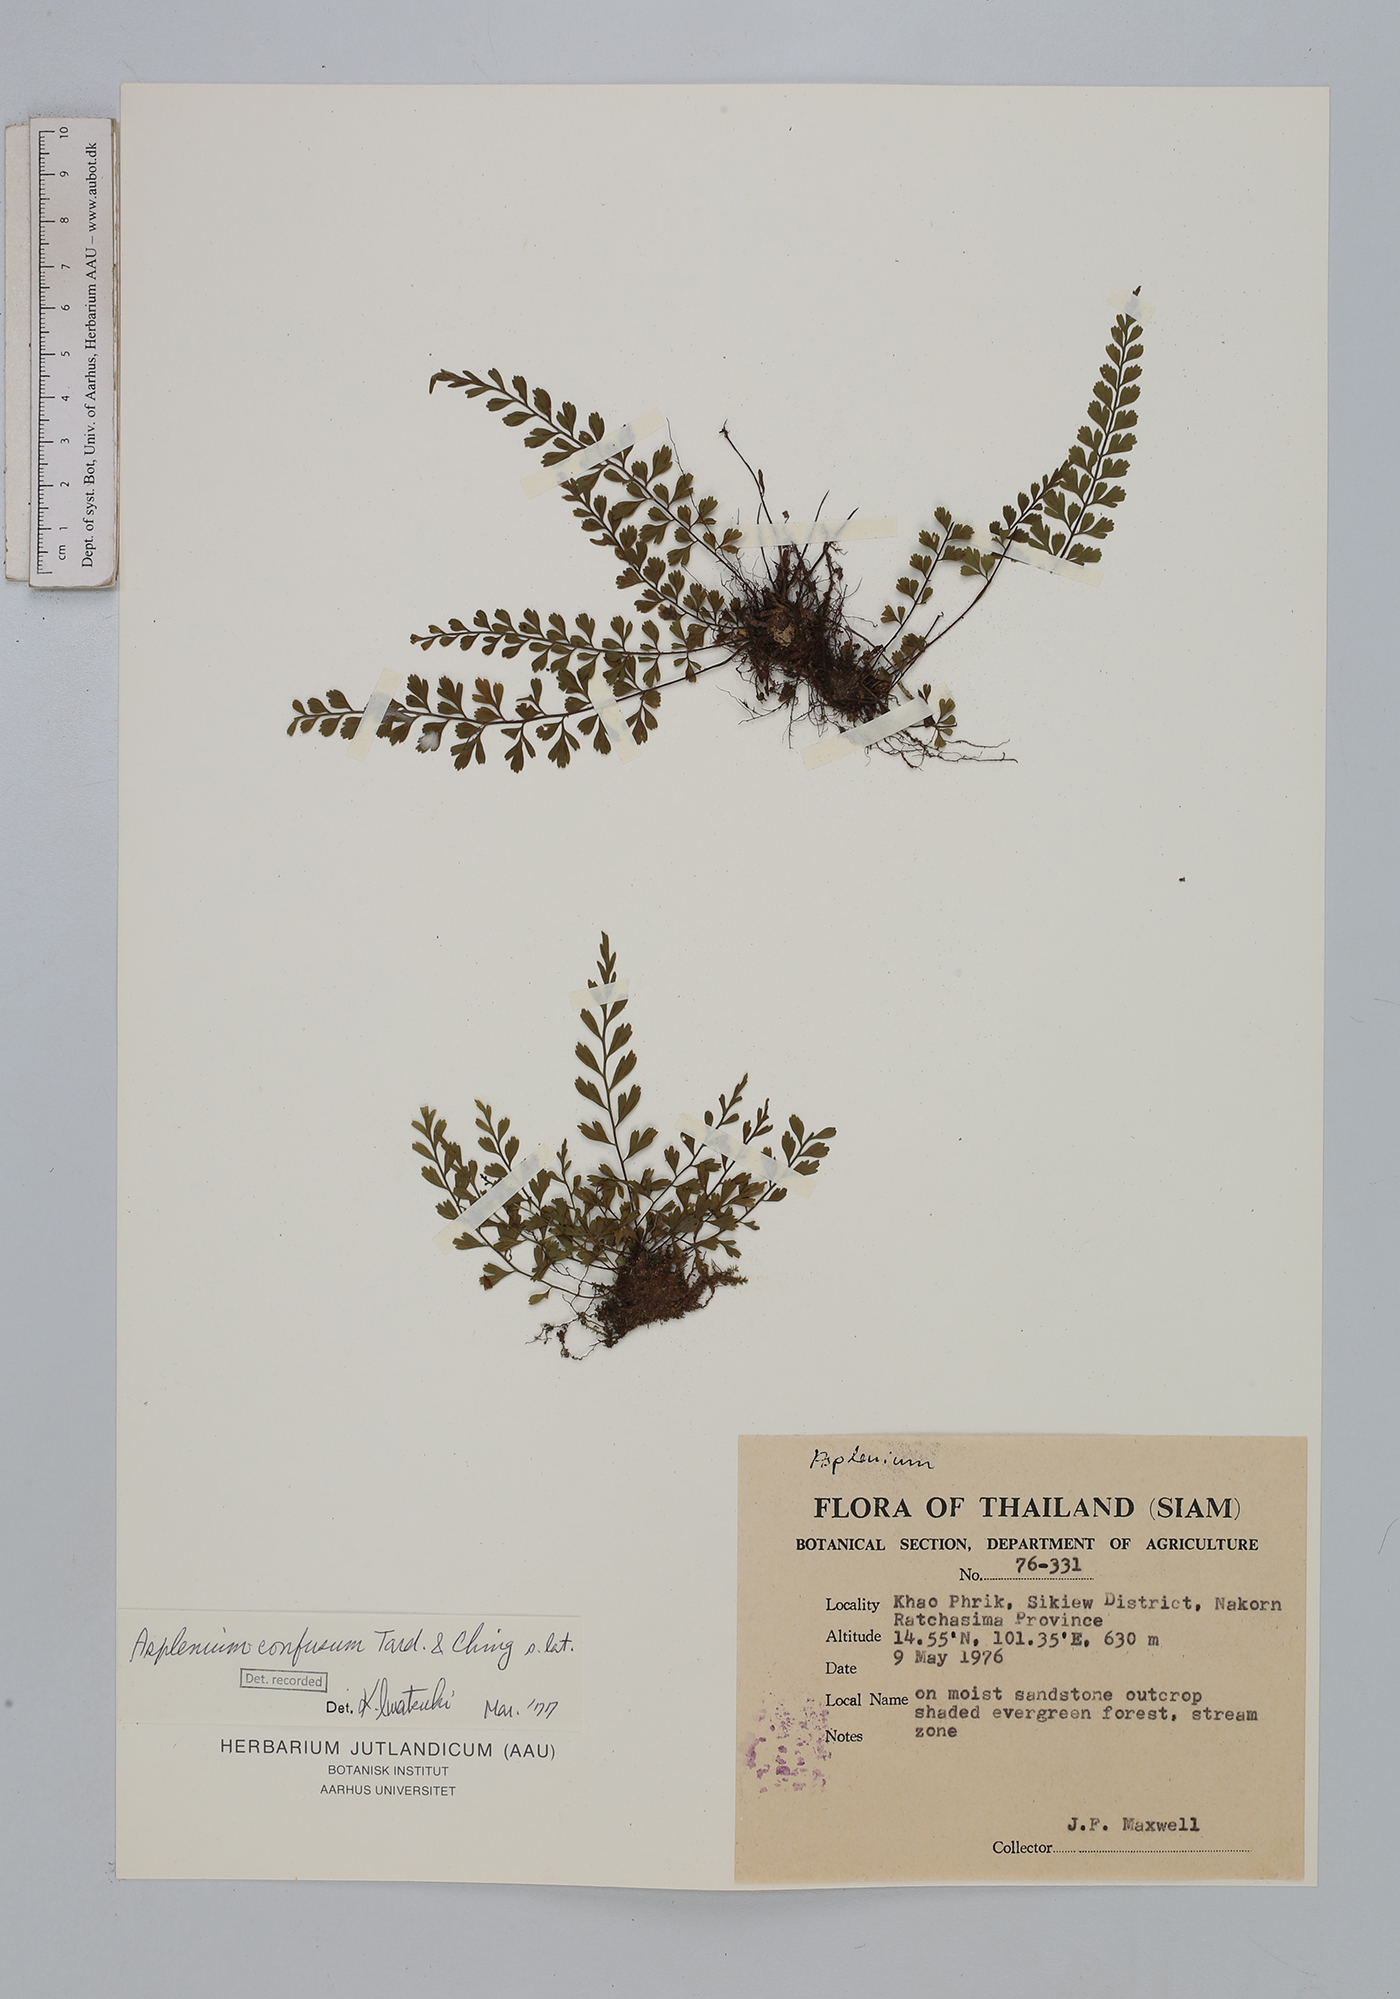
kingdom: Plantae
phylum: Tracheophyta
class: Polypodiopsida
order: Polypodiales
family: Aspleniaceae
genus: Asplenium
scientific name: Asplenium cristatum
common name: Parsley spleenwort
